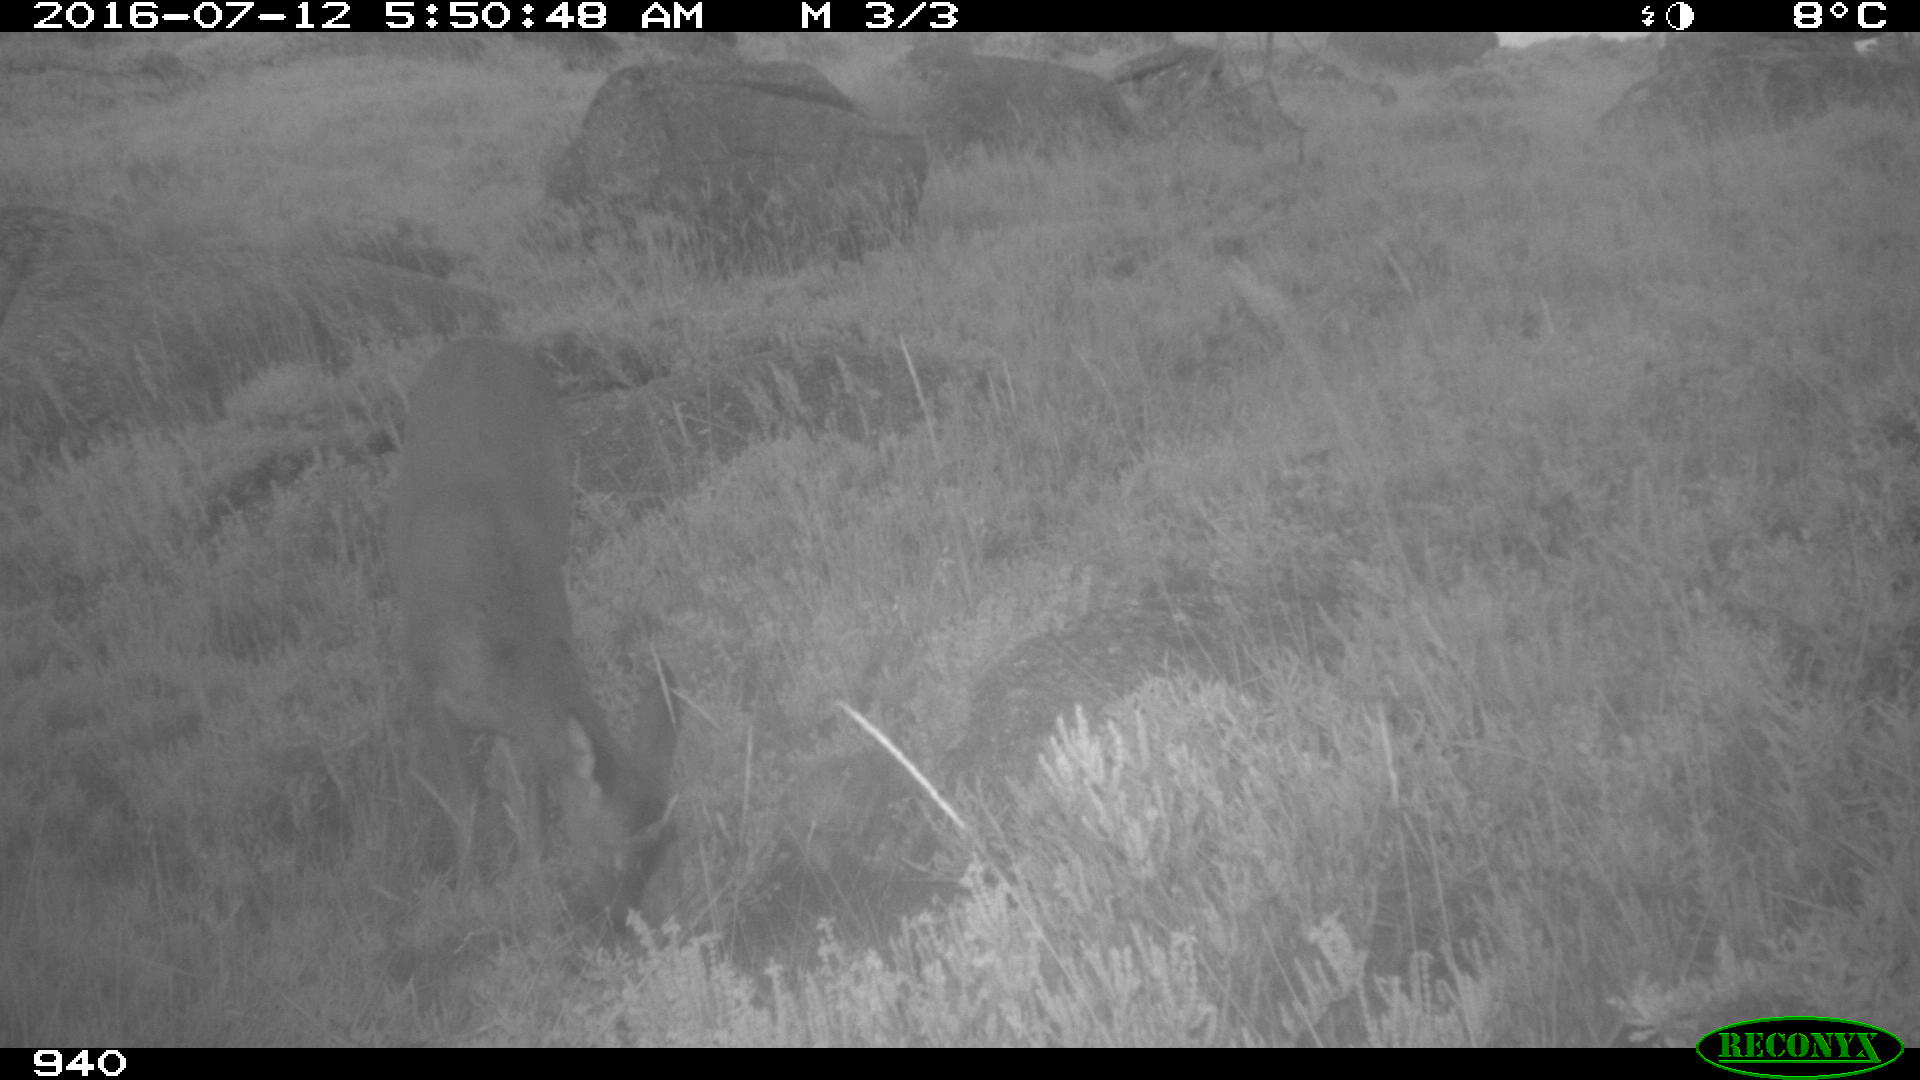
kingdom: Animalia
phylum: Chordata
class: Mammalia
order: Artiodactyla
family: Cervidae
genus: Capreolus
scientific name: Capreolus capreolus
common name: Western roe deer
